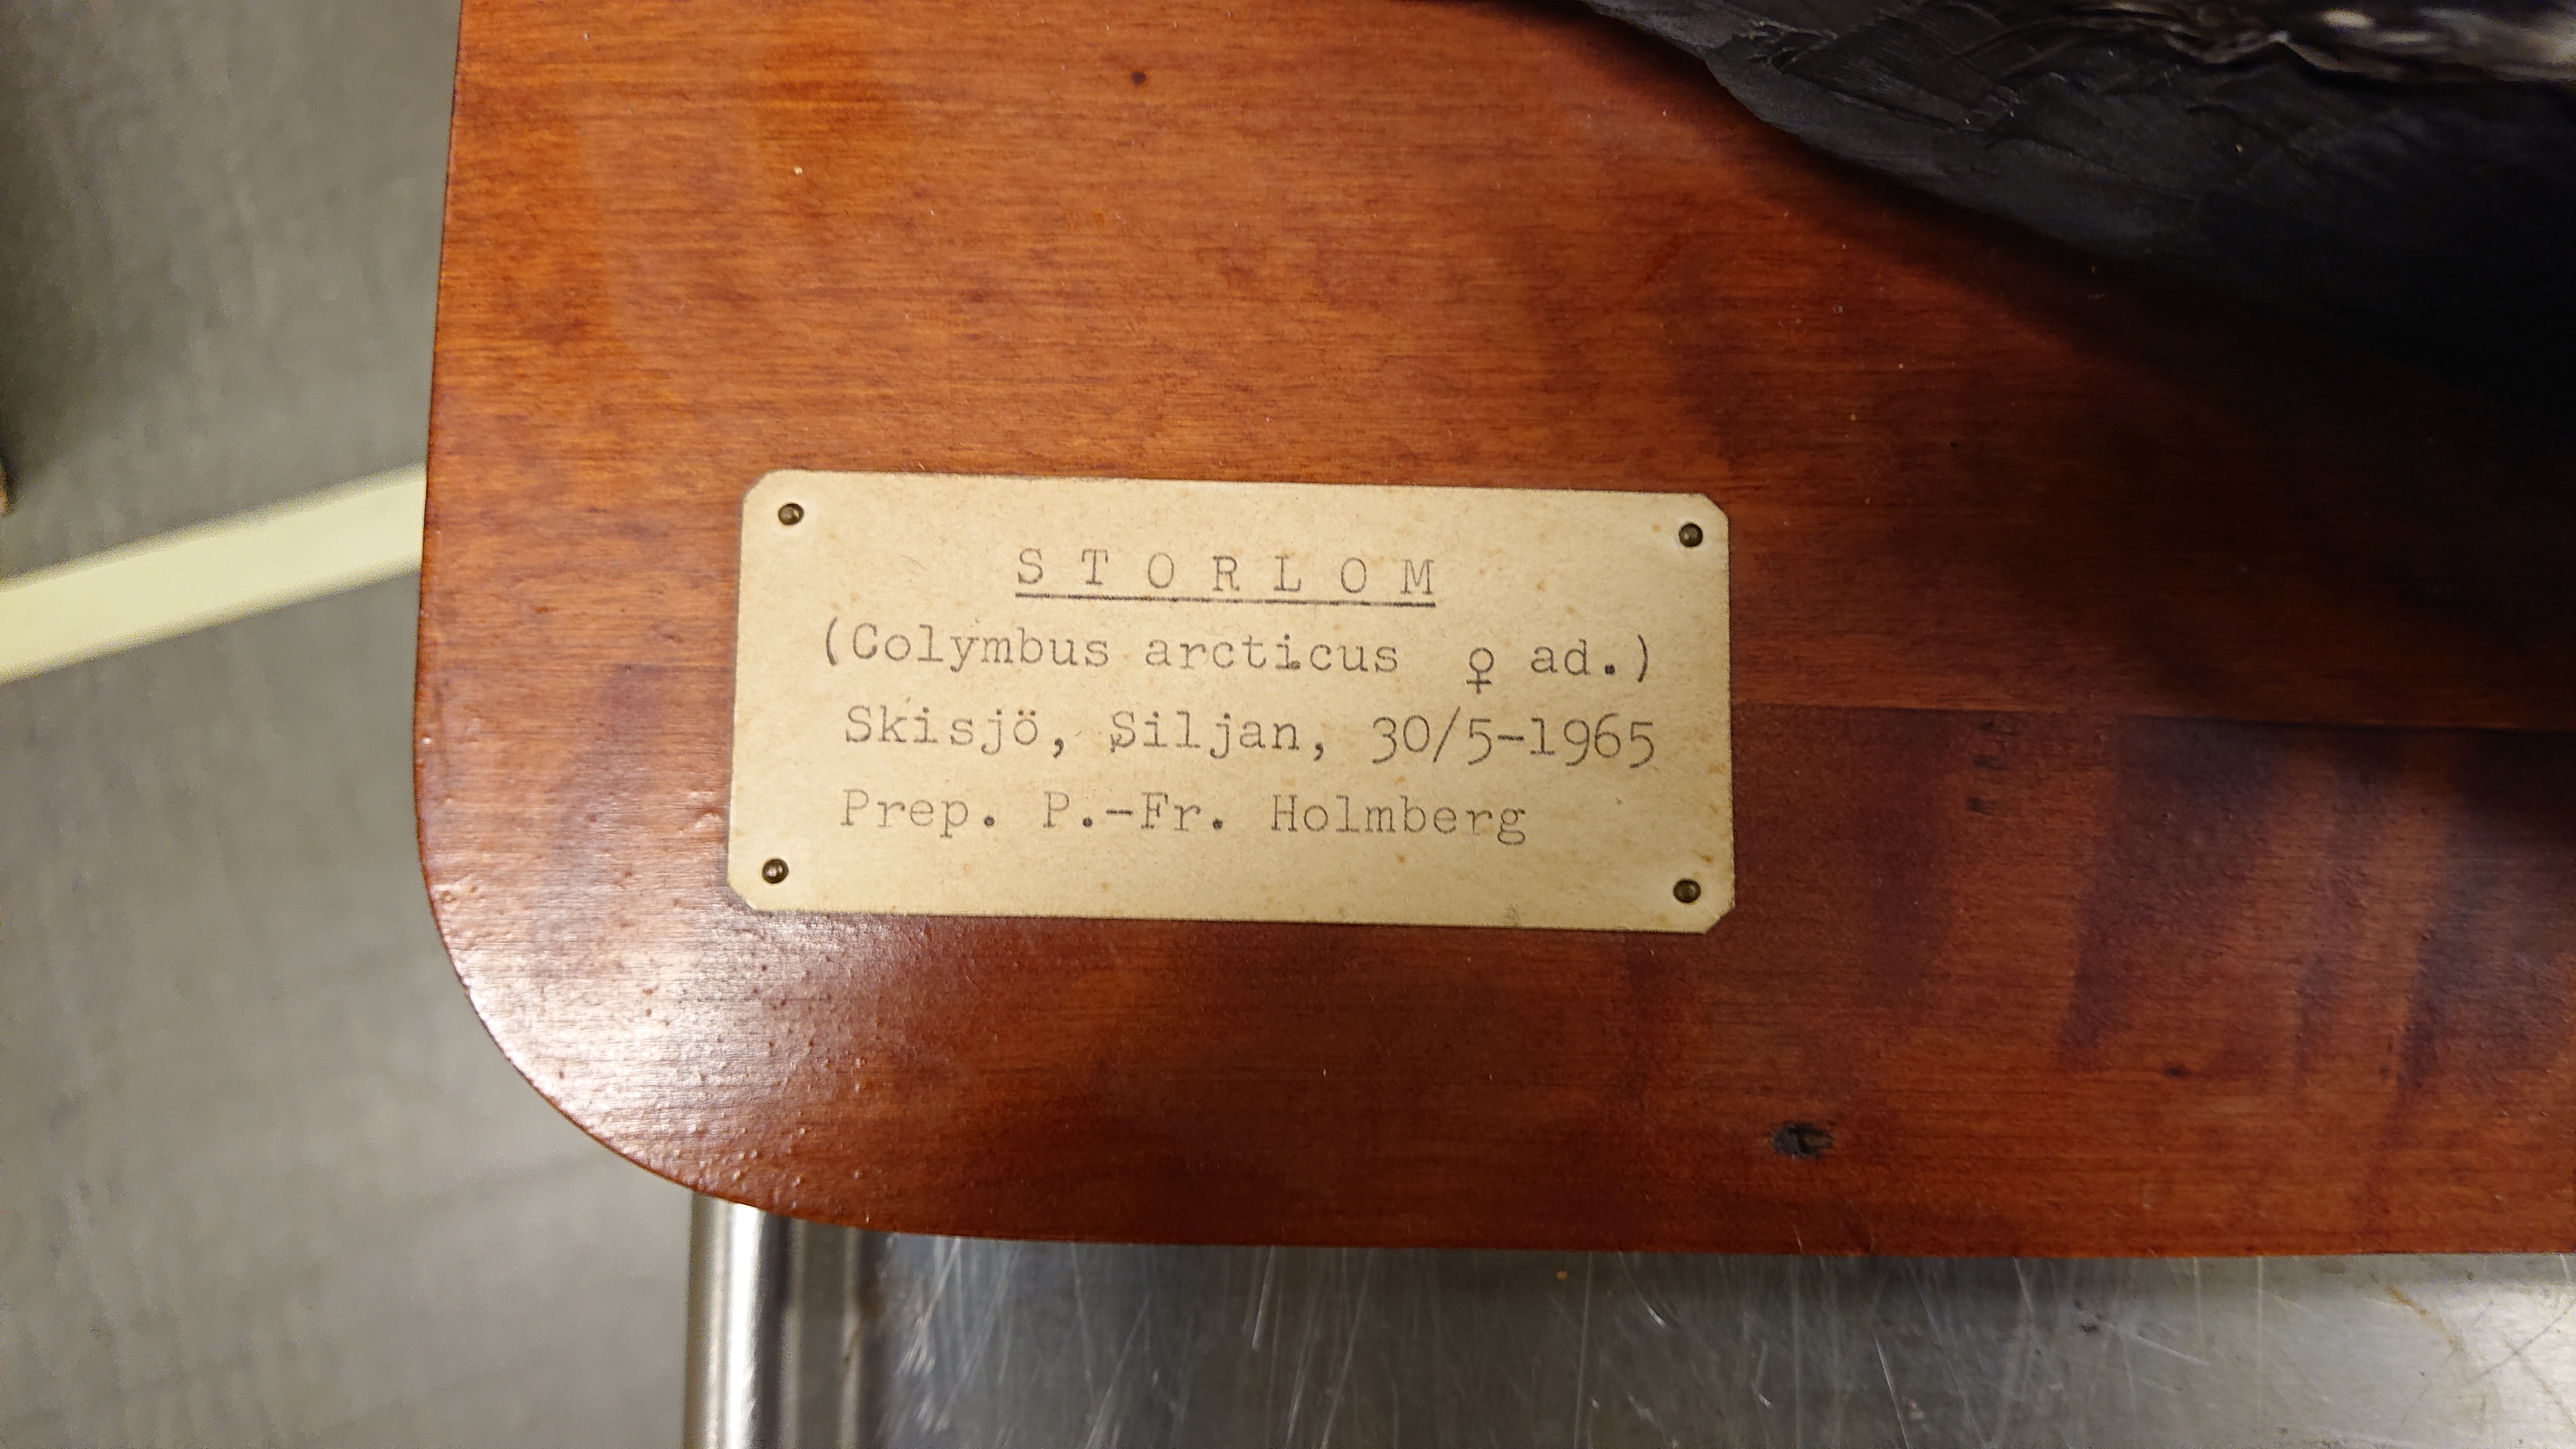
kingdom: Animalia
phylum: Chordata
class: Aves
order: Gaviiformes
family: Gaviidae
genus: Gavia
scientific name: Gavia arctica
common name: Black-throated loon
